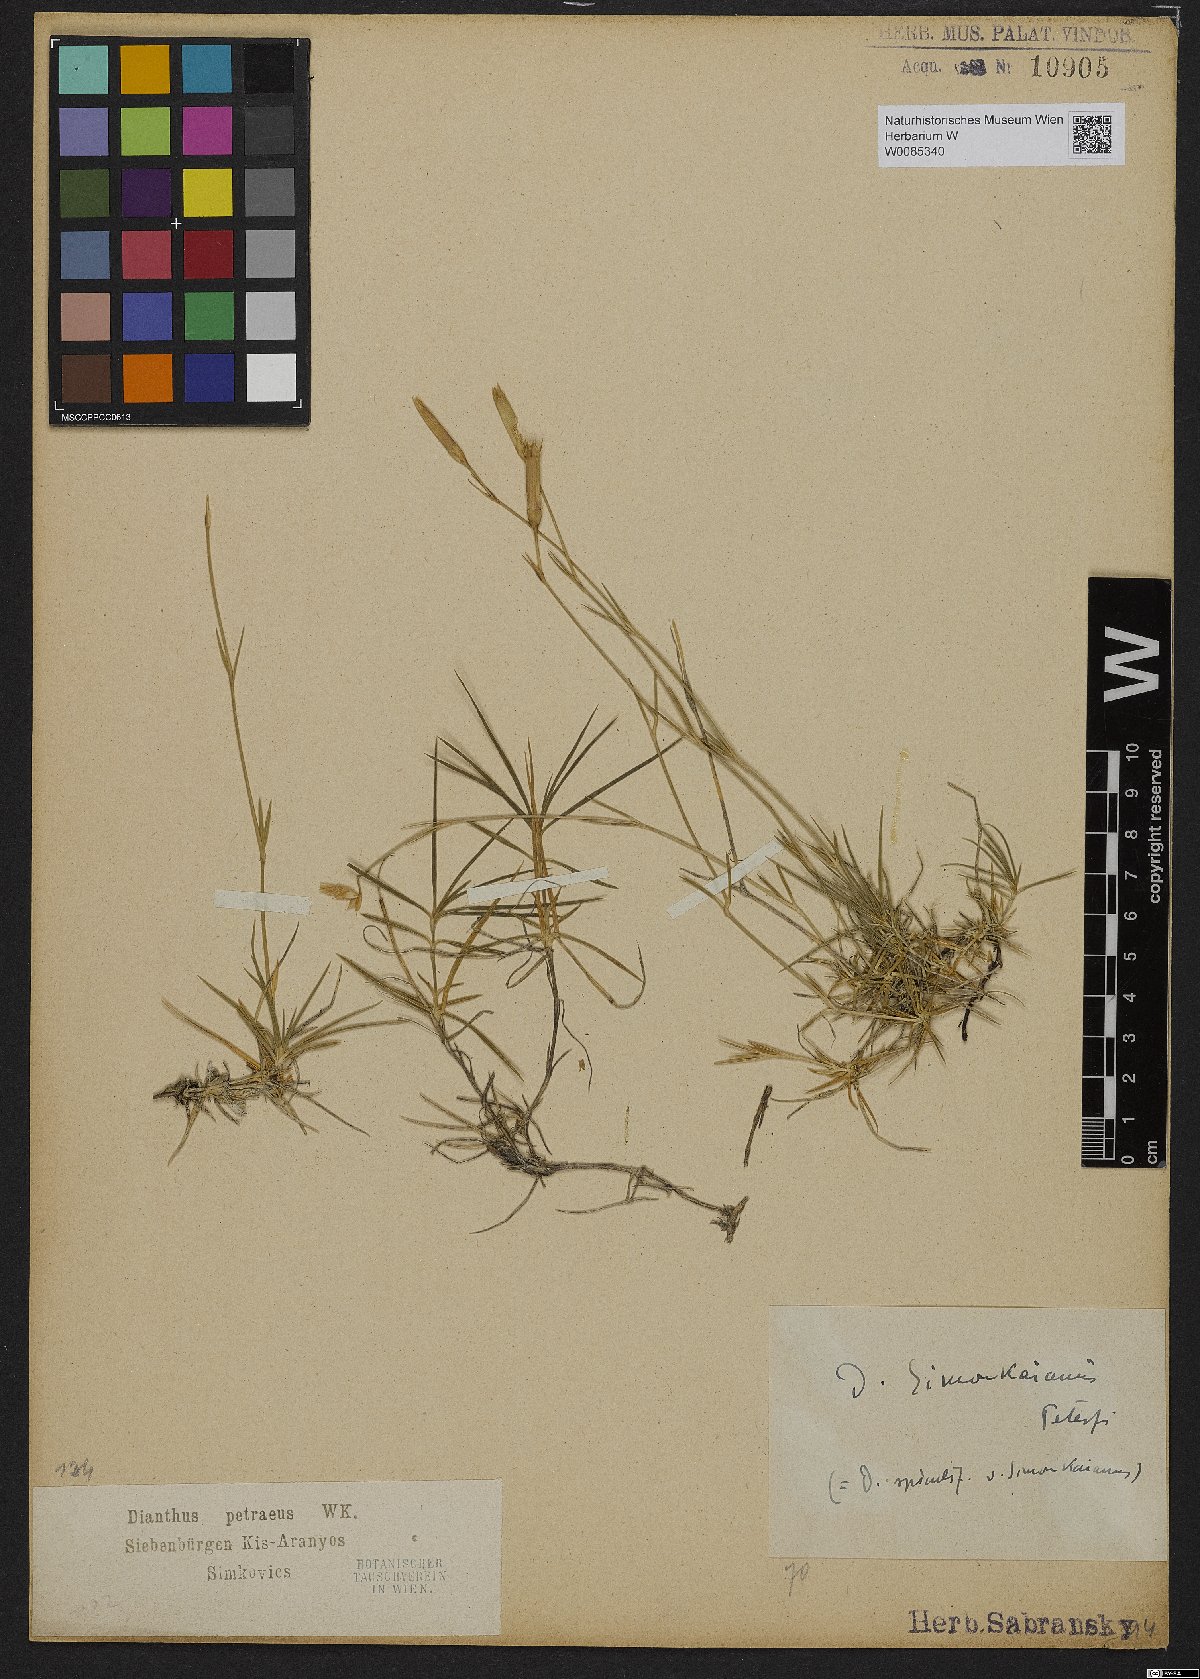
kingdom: Plantae
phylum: Tracheophyta
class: Magnoliopsida
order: Caryophyllales
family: Caryophyllaceae
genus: Dianthus
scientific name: Dianthus petraeus
